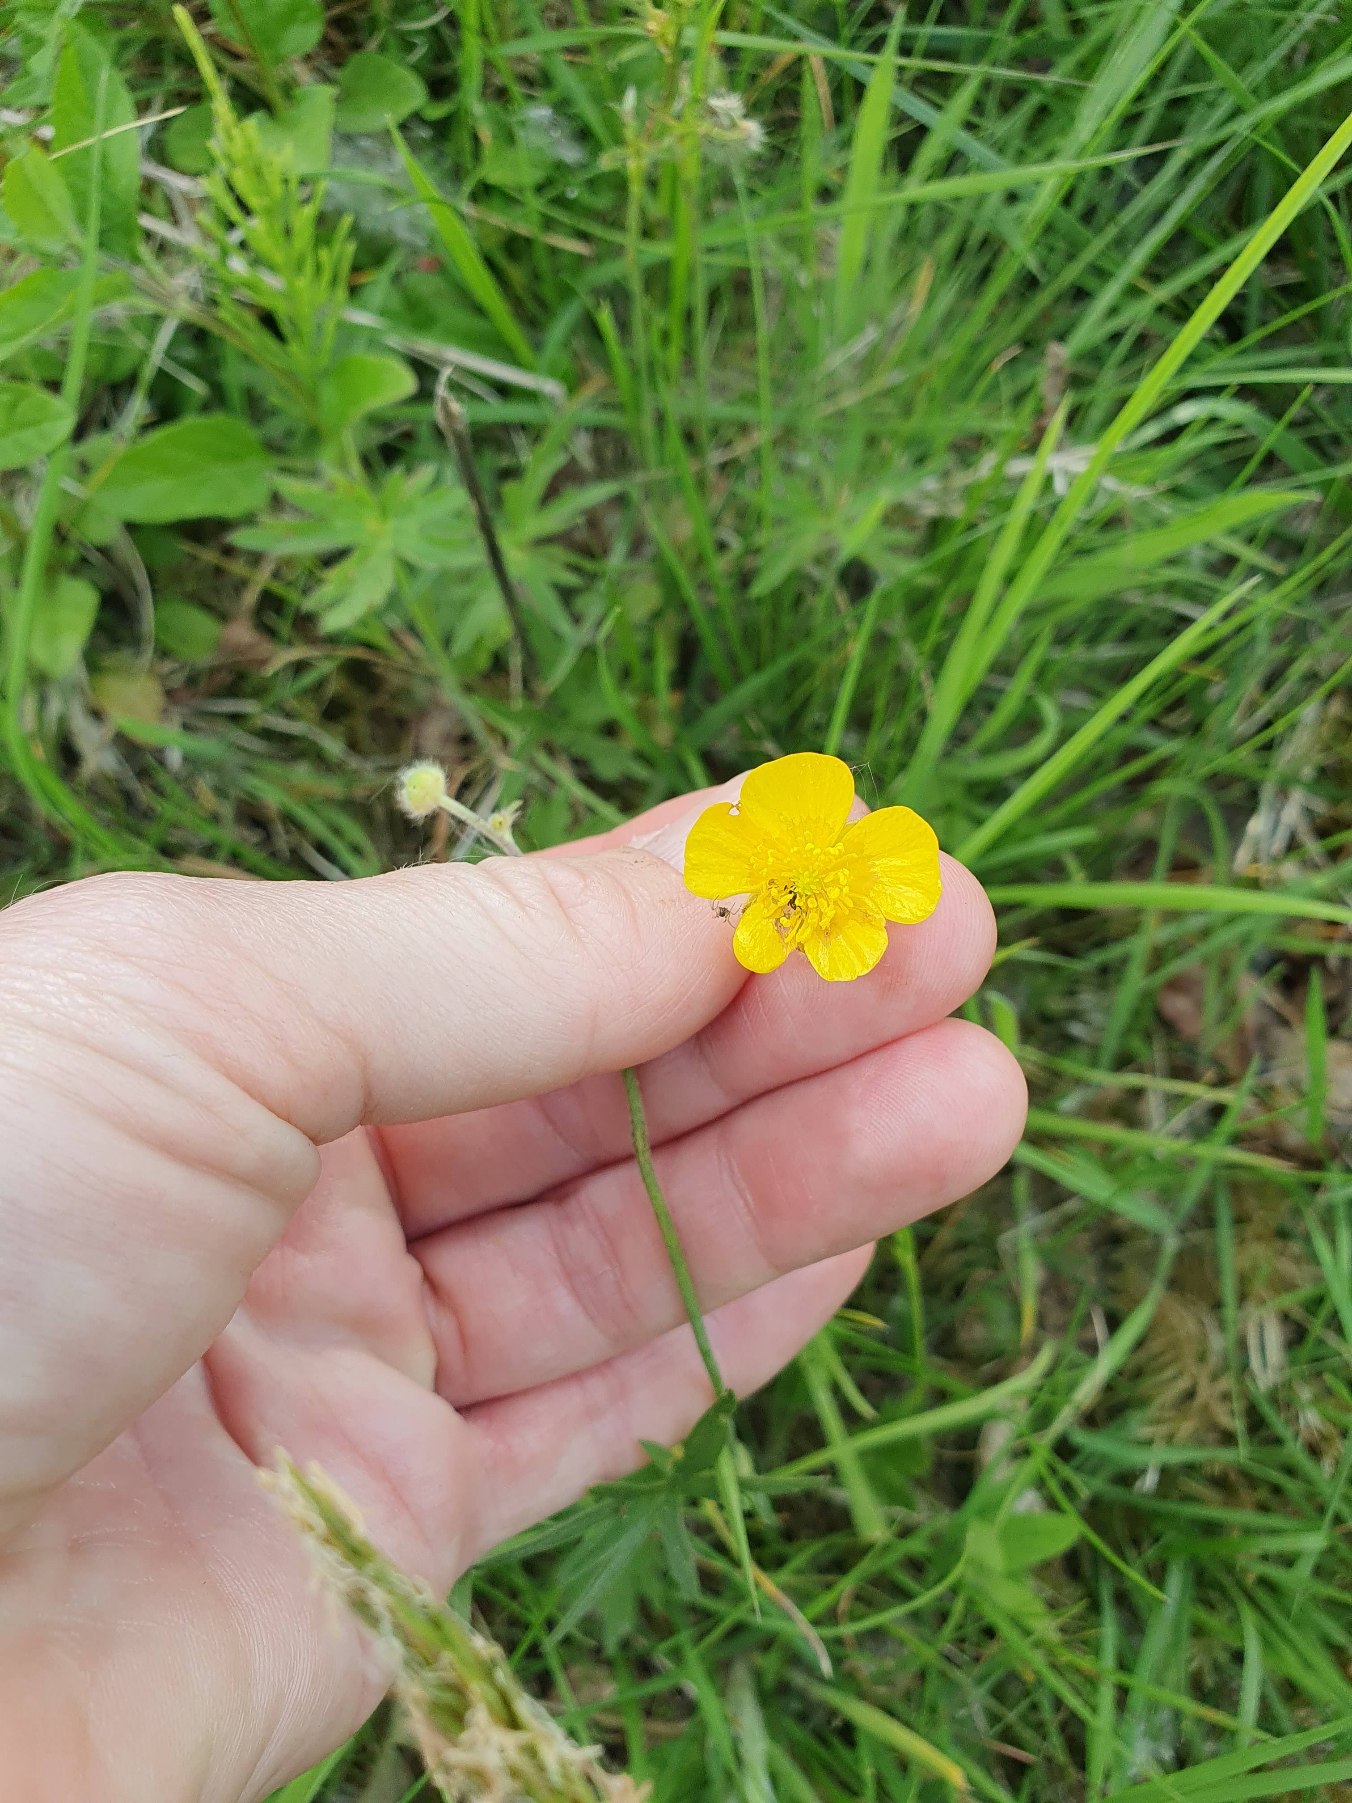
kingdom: Plantae
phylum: Tracheophyta
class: Magnoliopsida
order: Ranunculales
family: Ranunculaceae
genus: Ranunculus
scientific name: Ranunculus acris
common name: Bidende ranunkel
